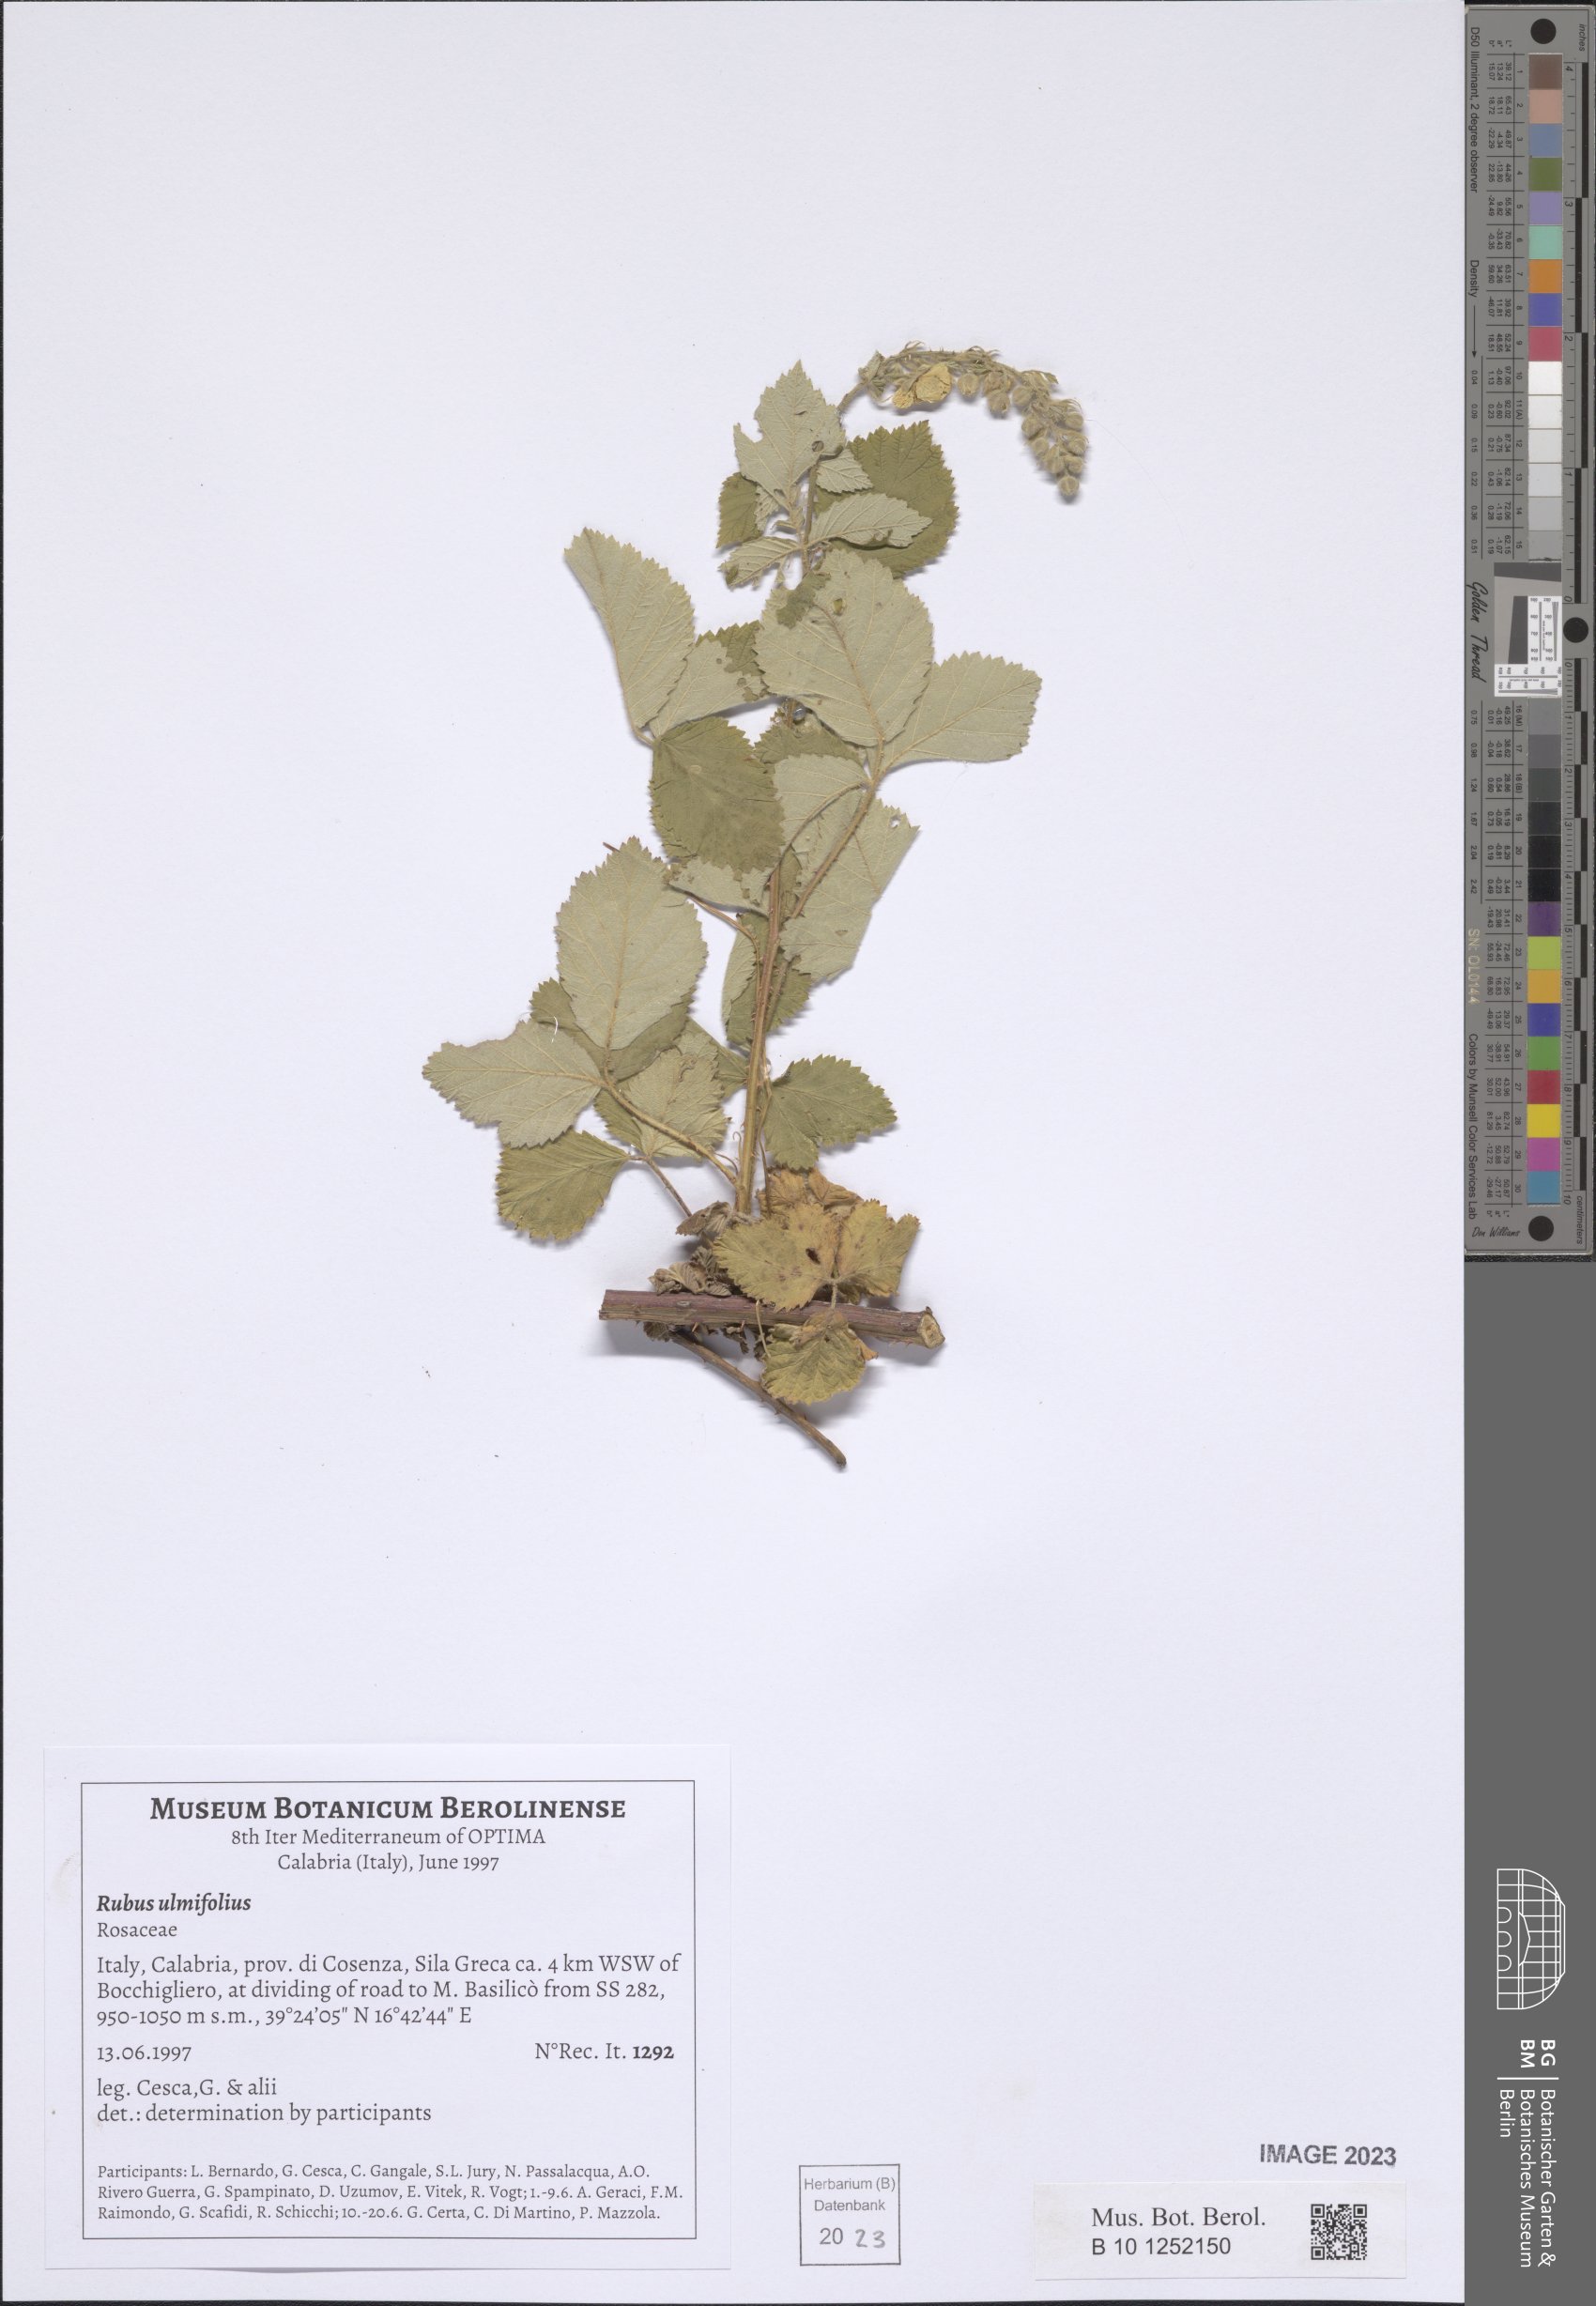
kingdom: Plantae
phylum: Tracheophyta
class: Magnoliopsida
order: Rosales
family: Rosaceae
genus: Rubus
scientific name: Rubus ulmifolius
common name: Elmleaf blackberry
